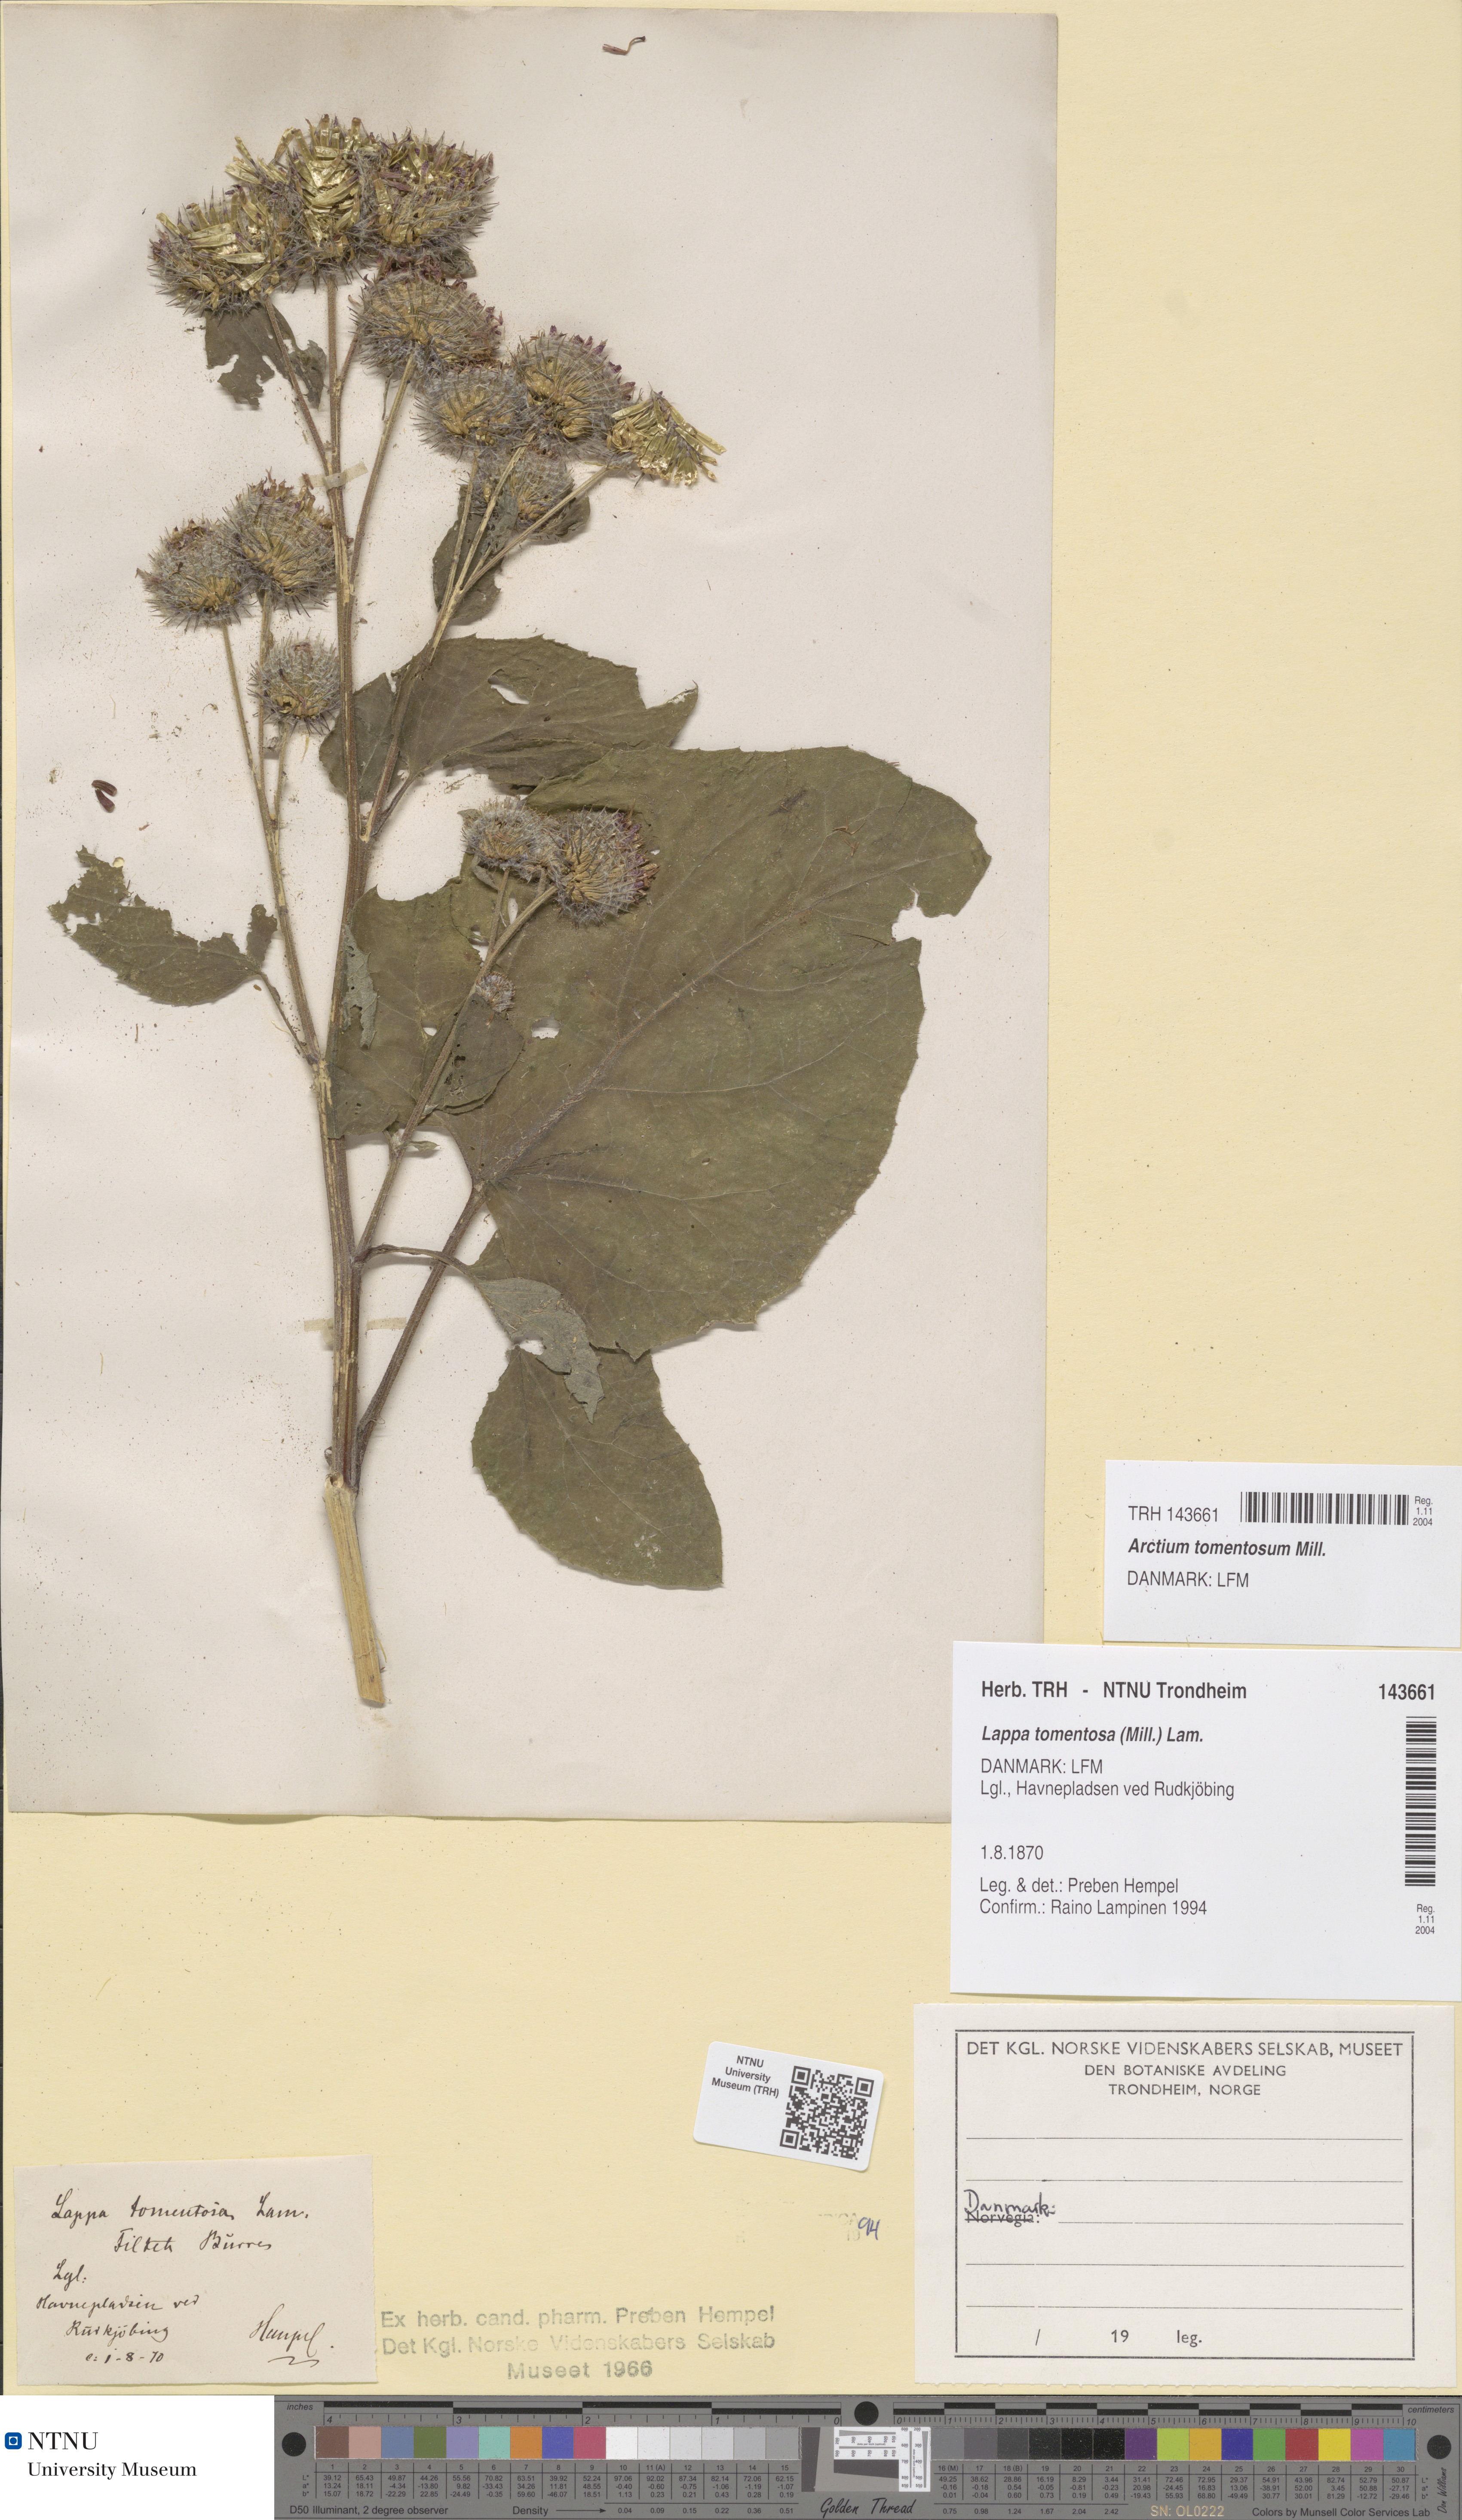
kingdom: Plantae
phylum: Tracheophyta
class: Magnoliopsida
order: Asterales
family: Asteraceae
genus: Arctium
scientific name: Arctium tomentosum
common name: Woolly burdock
